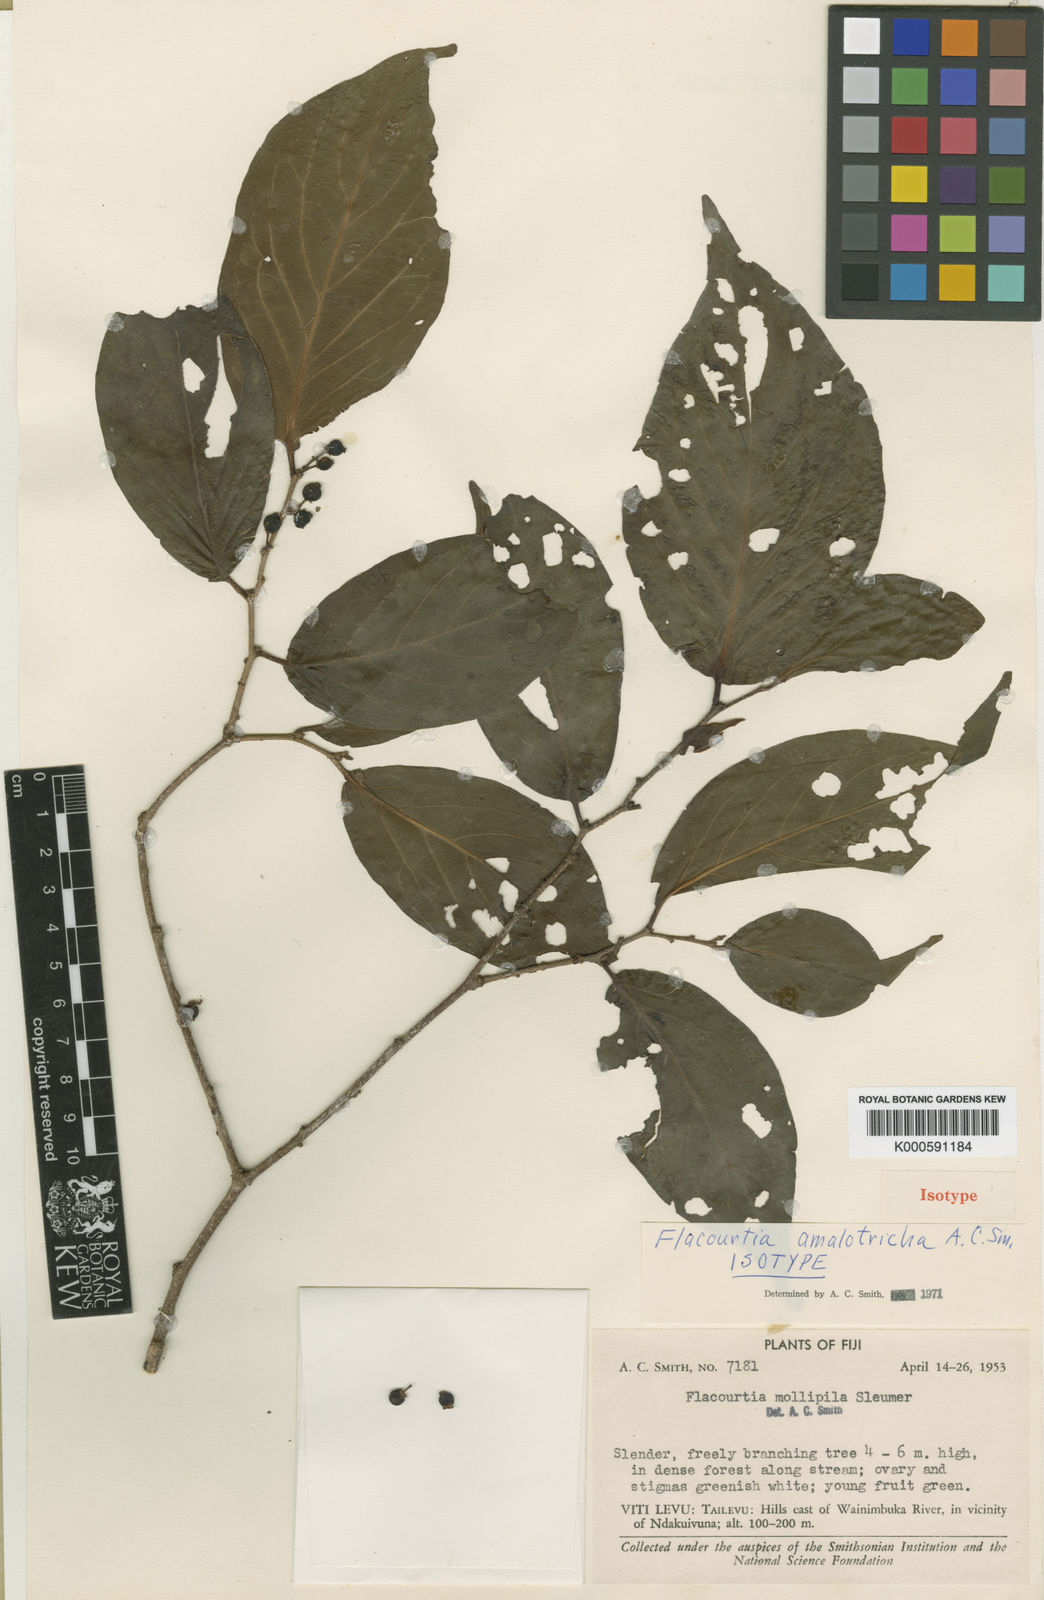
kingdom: Plantae
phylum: Tracheophyta
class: Magnoliopsida
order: Malpighiales
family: Salicaceae
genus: Flacourtia
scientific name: Flacourtia amalotricha
